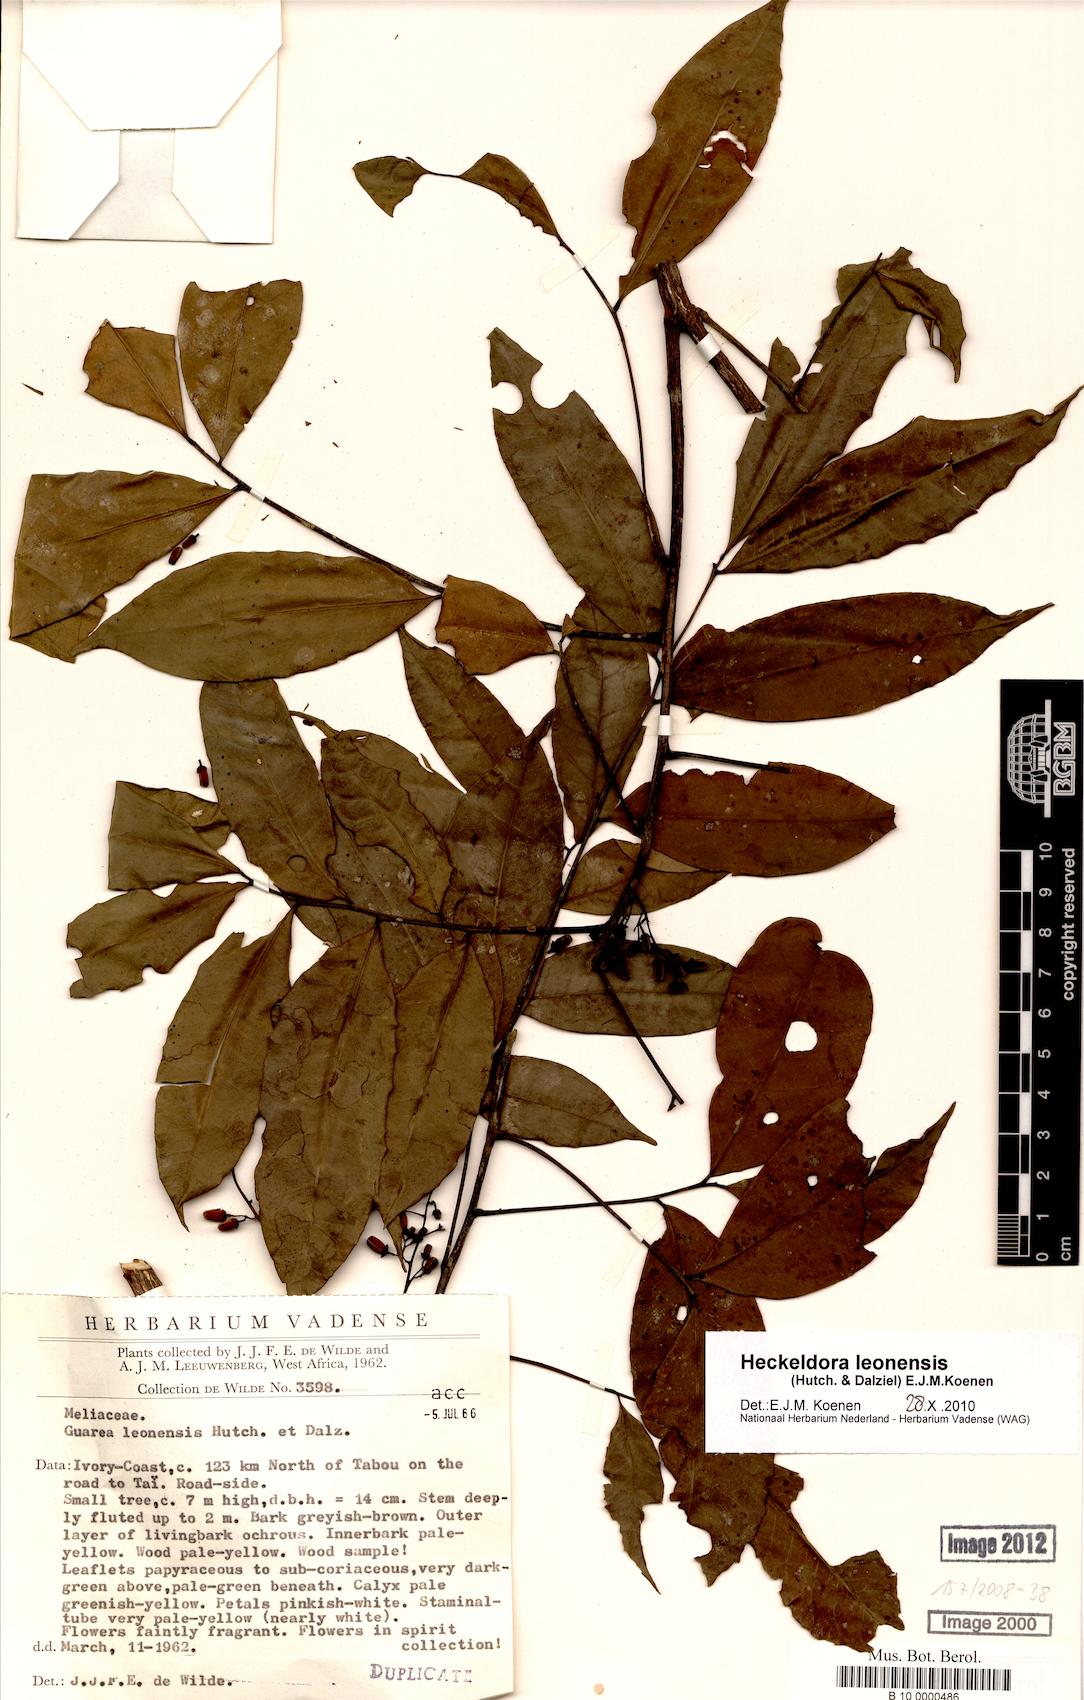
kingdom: Plantae
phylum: Tracheophyta
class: Magnoliopsida
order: Sapindales
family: Meliaceae
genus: Heckeldora
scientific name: Heckeldora leonensis
